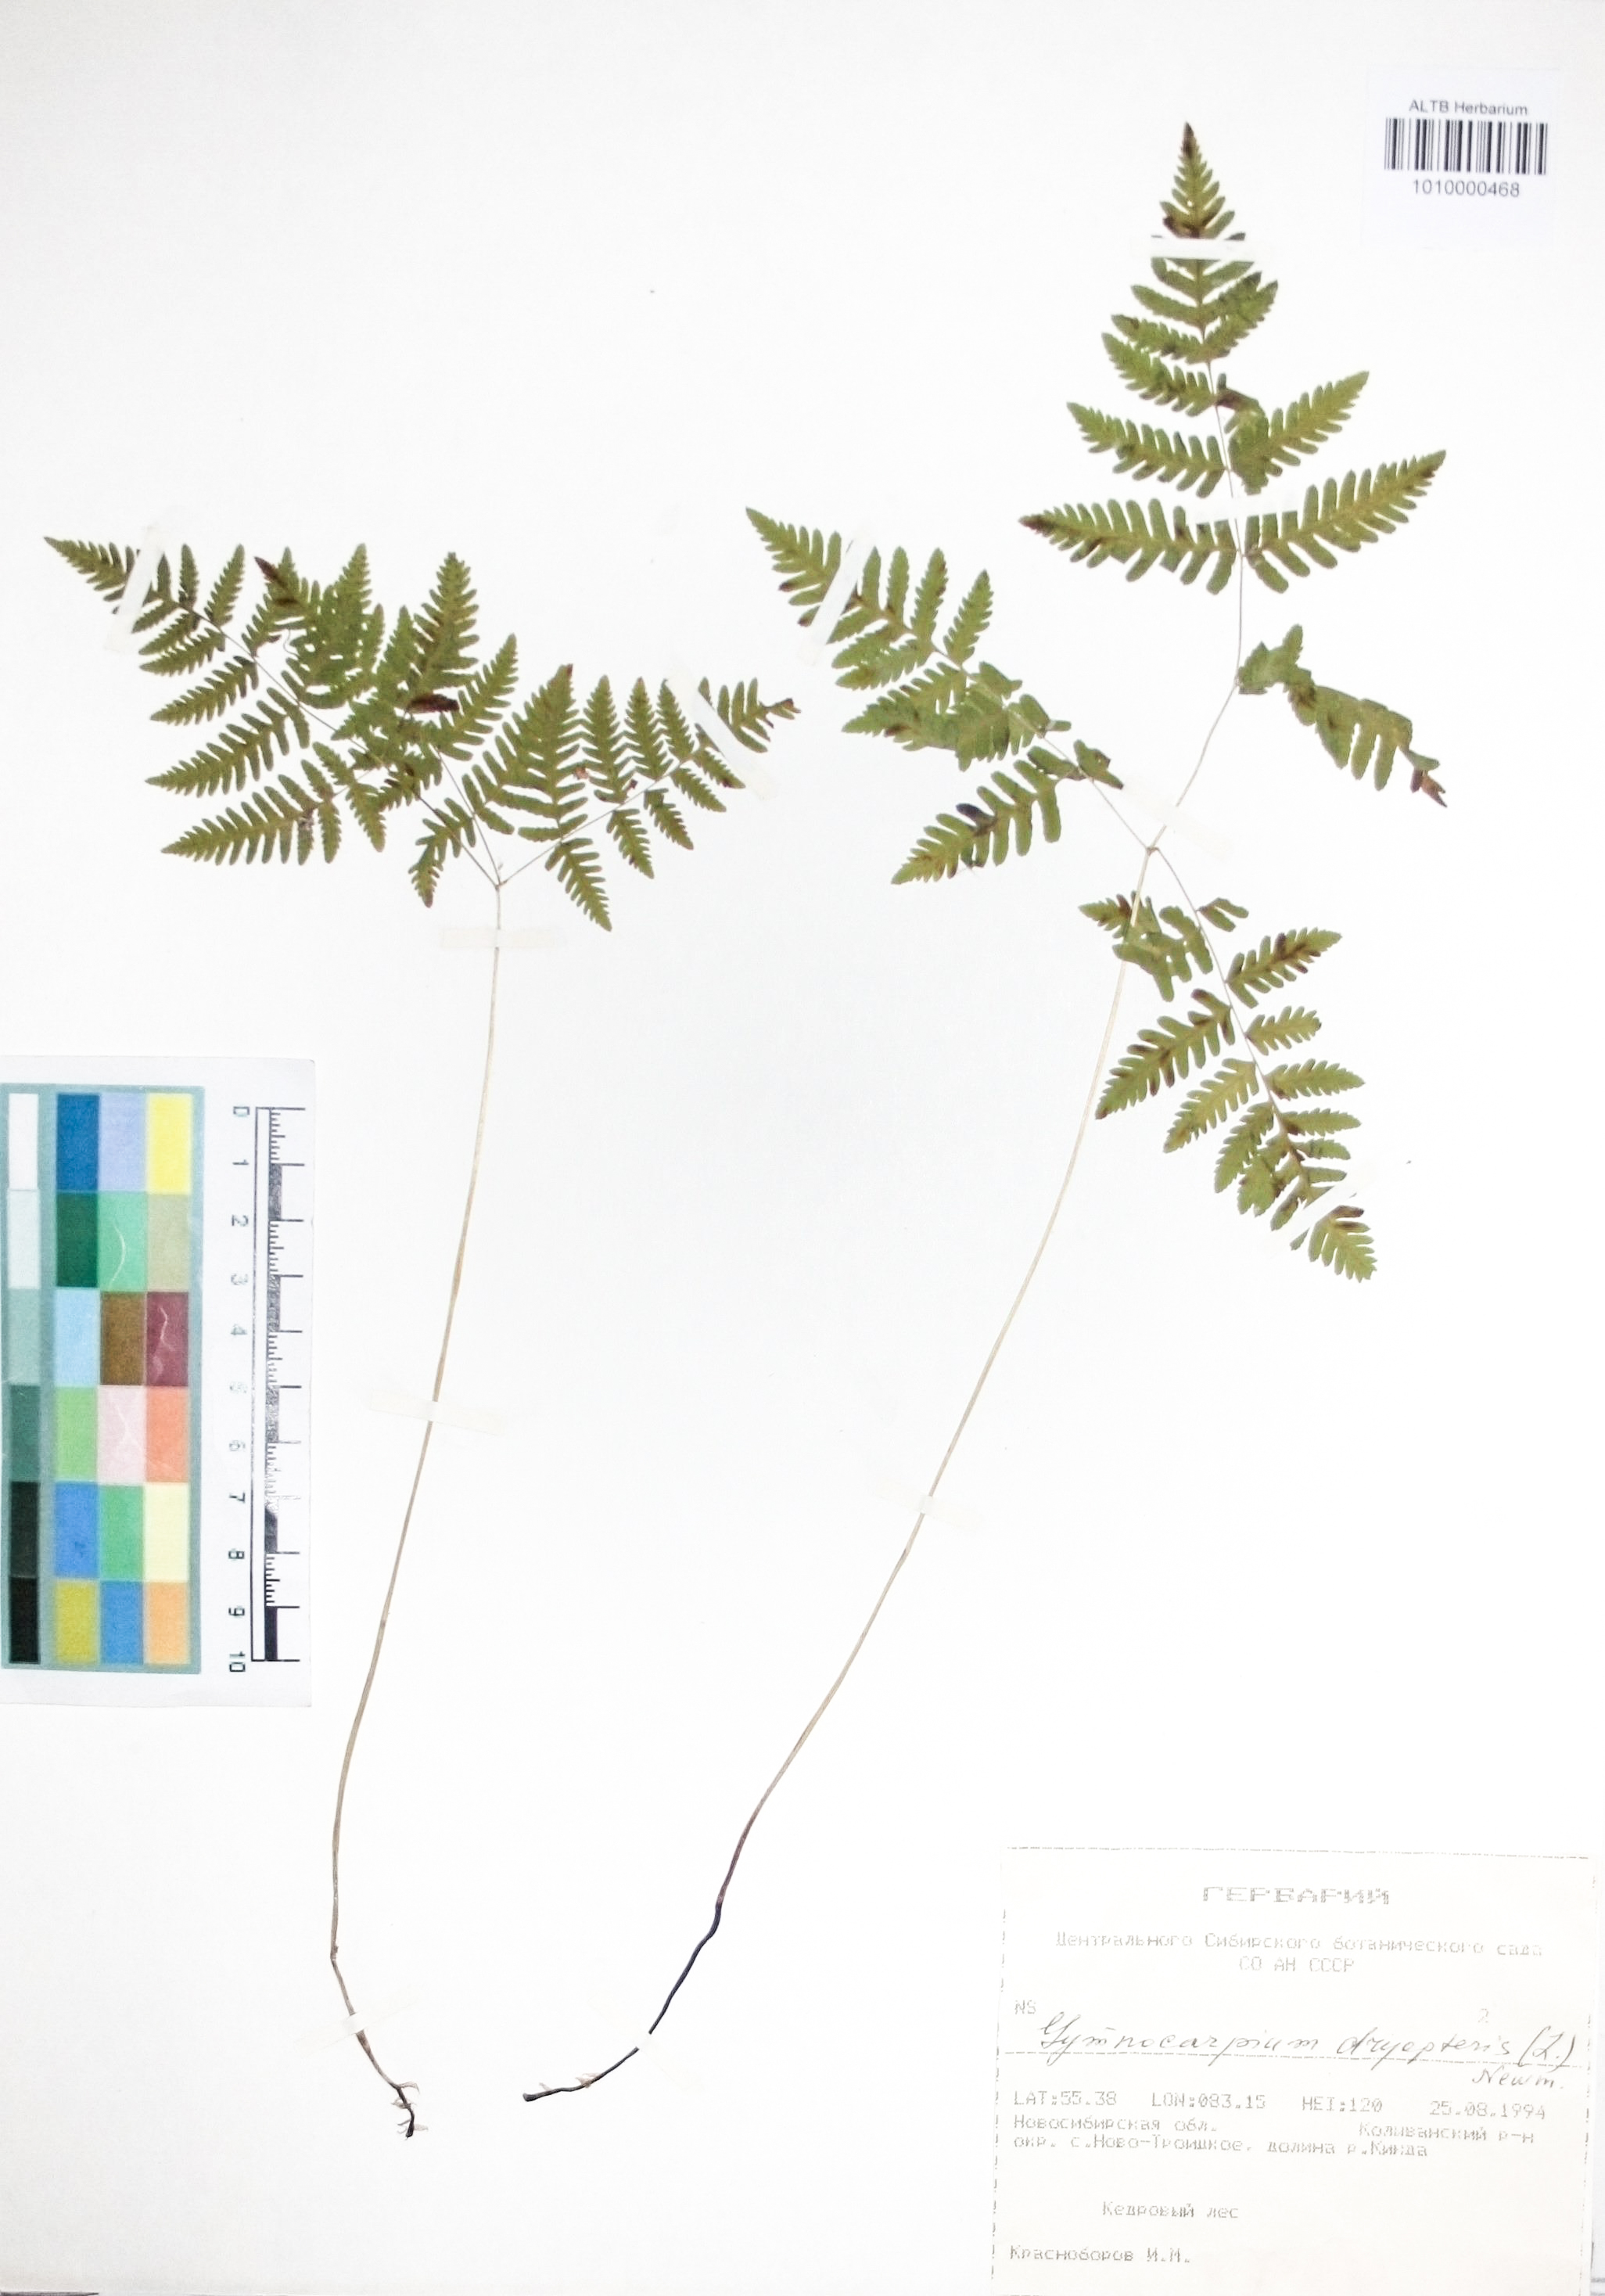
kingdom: Plantae
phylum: Tracheophyta
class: Polypodiopsida
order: Polypodiales
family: Cystopteridaceae
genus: Gymnocarpium
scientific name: Gymnocarpium dryopteris
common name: Oak fern
